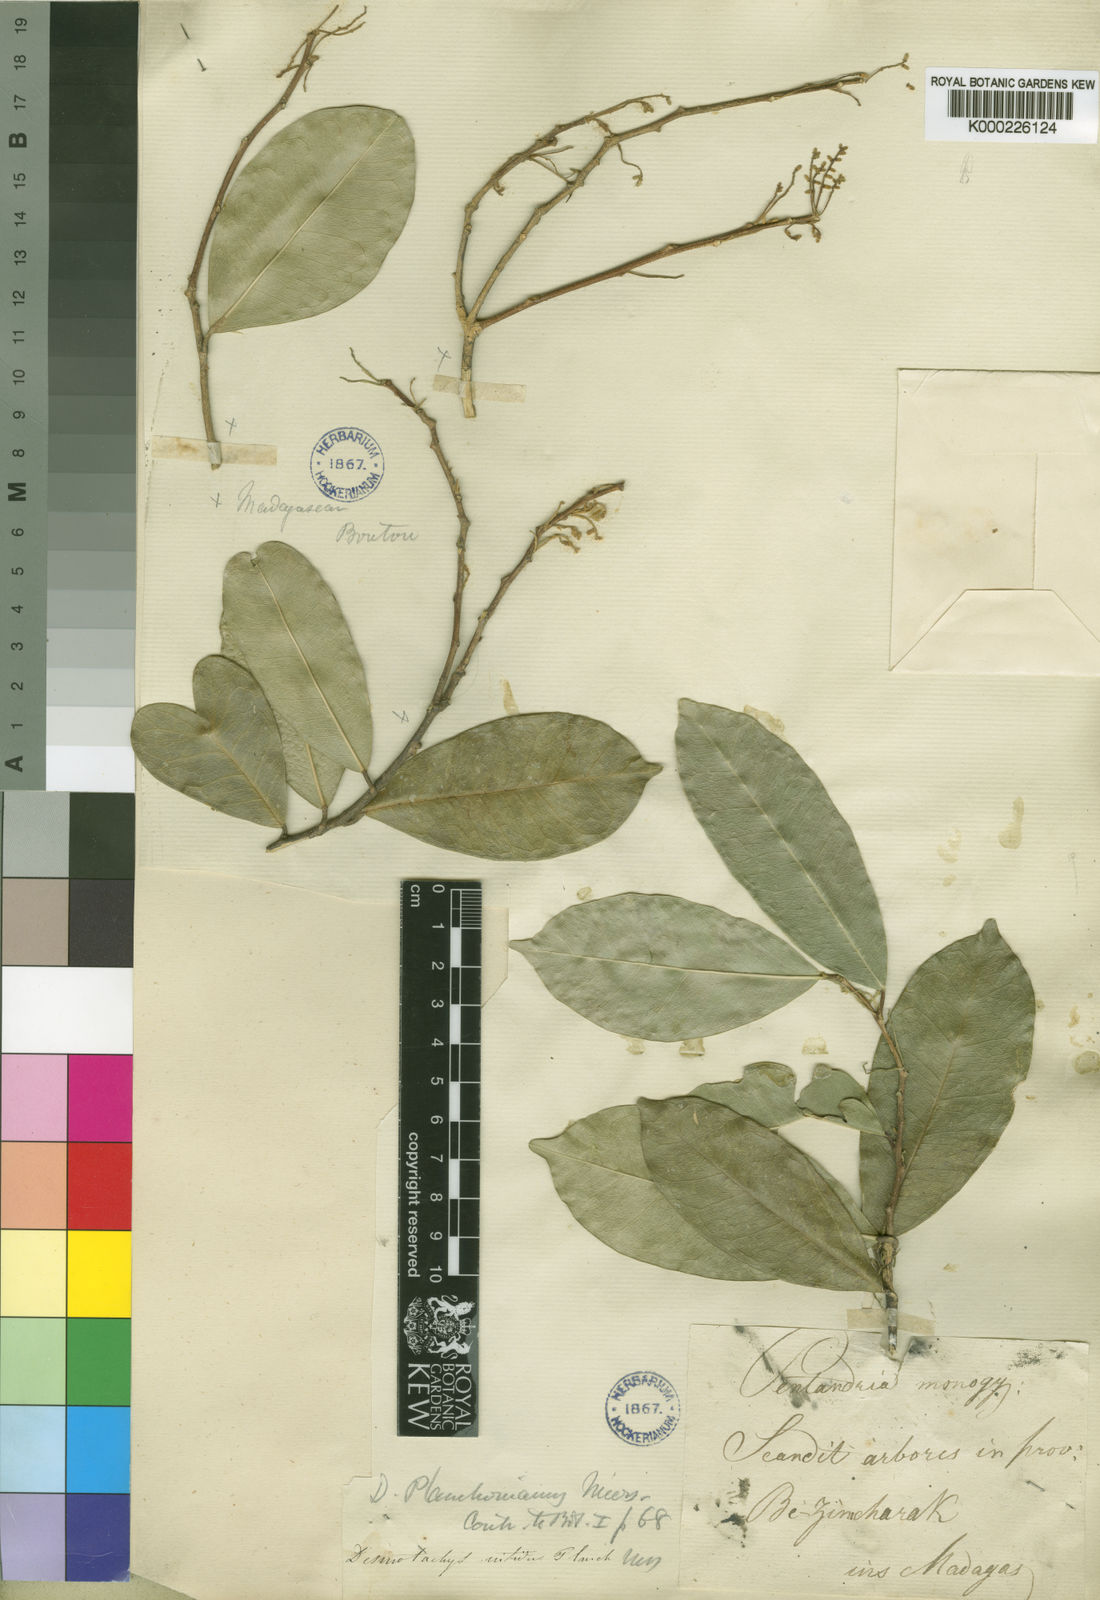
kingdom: Plantae
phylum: Tracheophyta
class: Magnoliopsida
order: Icacinales
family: Icacinaceae
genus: Desmostachys
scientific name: Desmostachys planchonianus
